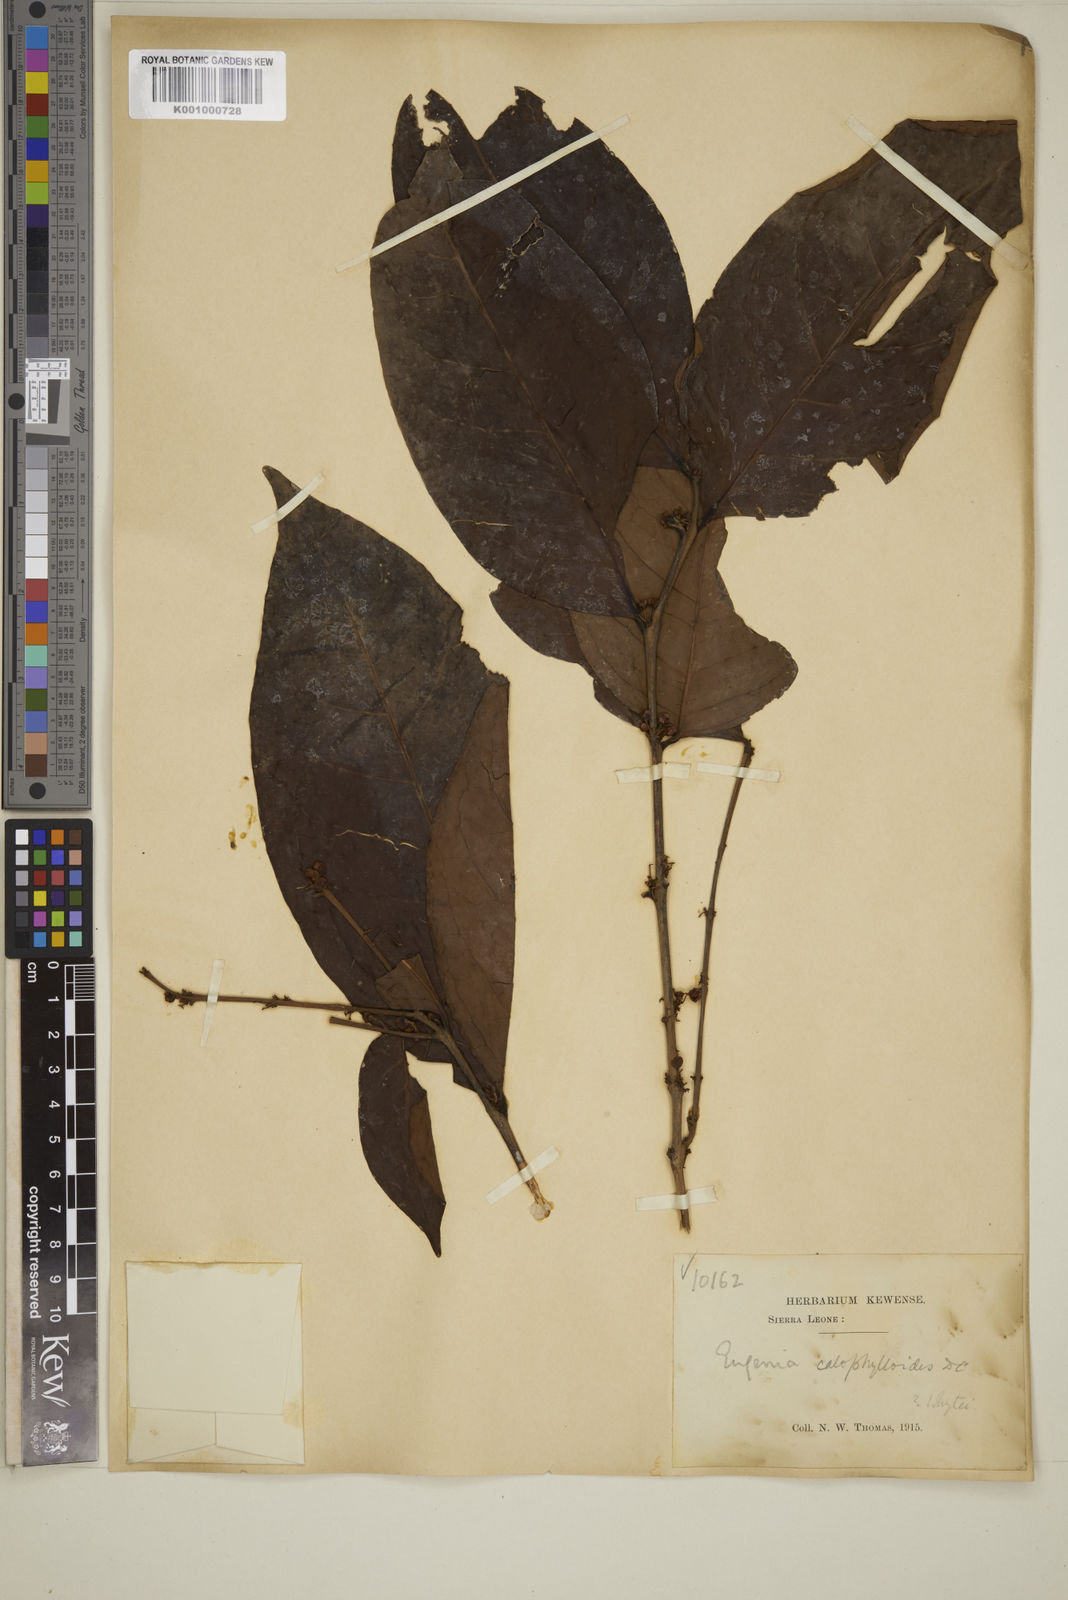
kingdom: Plantae
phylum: Tracheophyta
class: Magnoliopsida
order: Myrtales
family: Myrtaceae
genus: Eugenia
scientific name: Eugenia calophylloides
